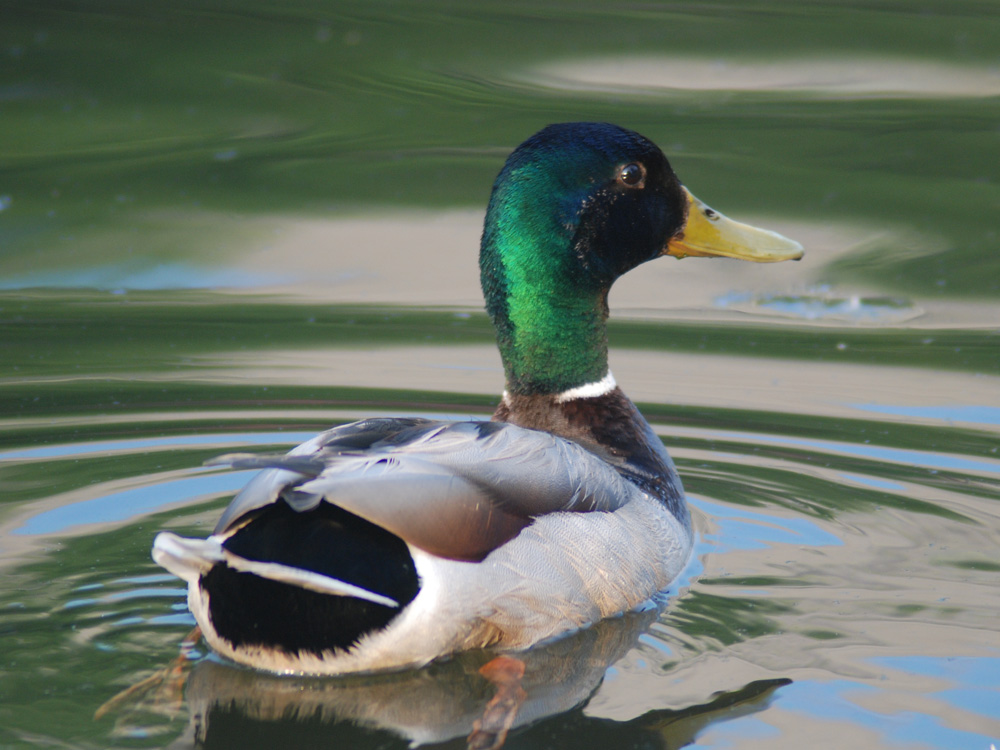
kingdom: Animalia
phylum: Chordata
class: Aves
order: Anseriformes
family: Anatidae
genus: Anas
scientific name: Anas platyrhynchos
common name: Mallard
